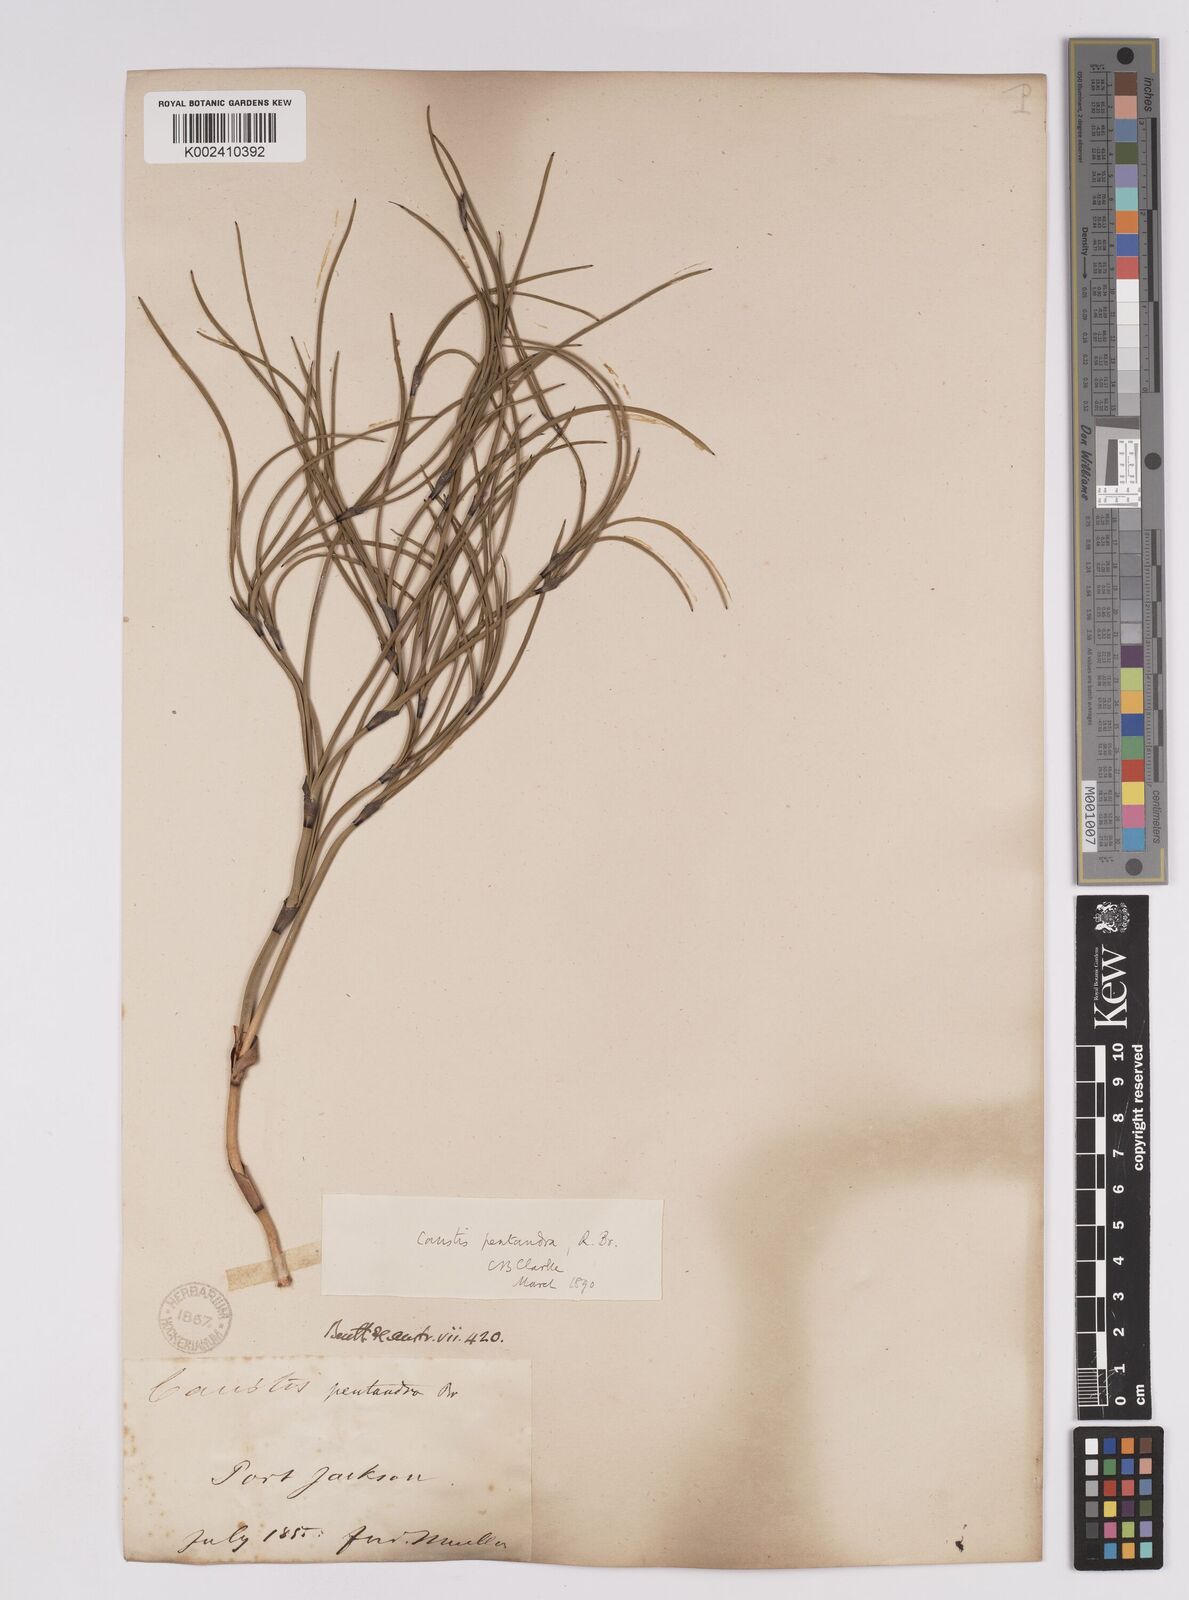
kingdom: Plantae
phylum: Tracheophyta
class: Liliopsida
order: Poales
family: Cyperaceae
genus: Caustis
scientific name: Caustis pentandra
